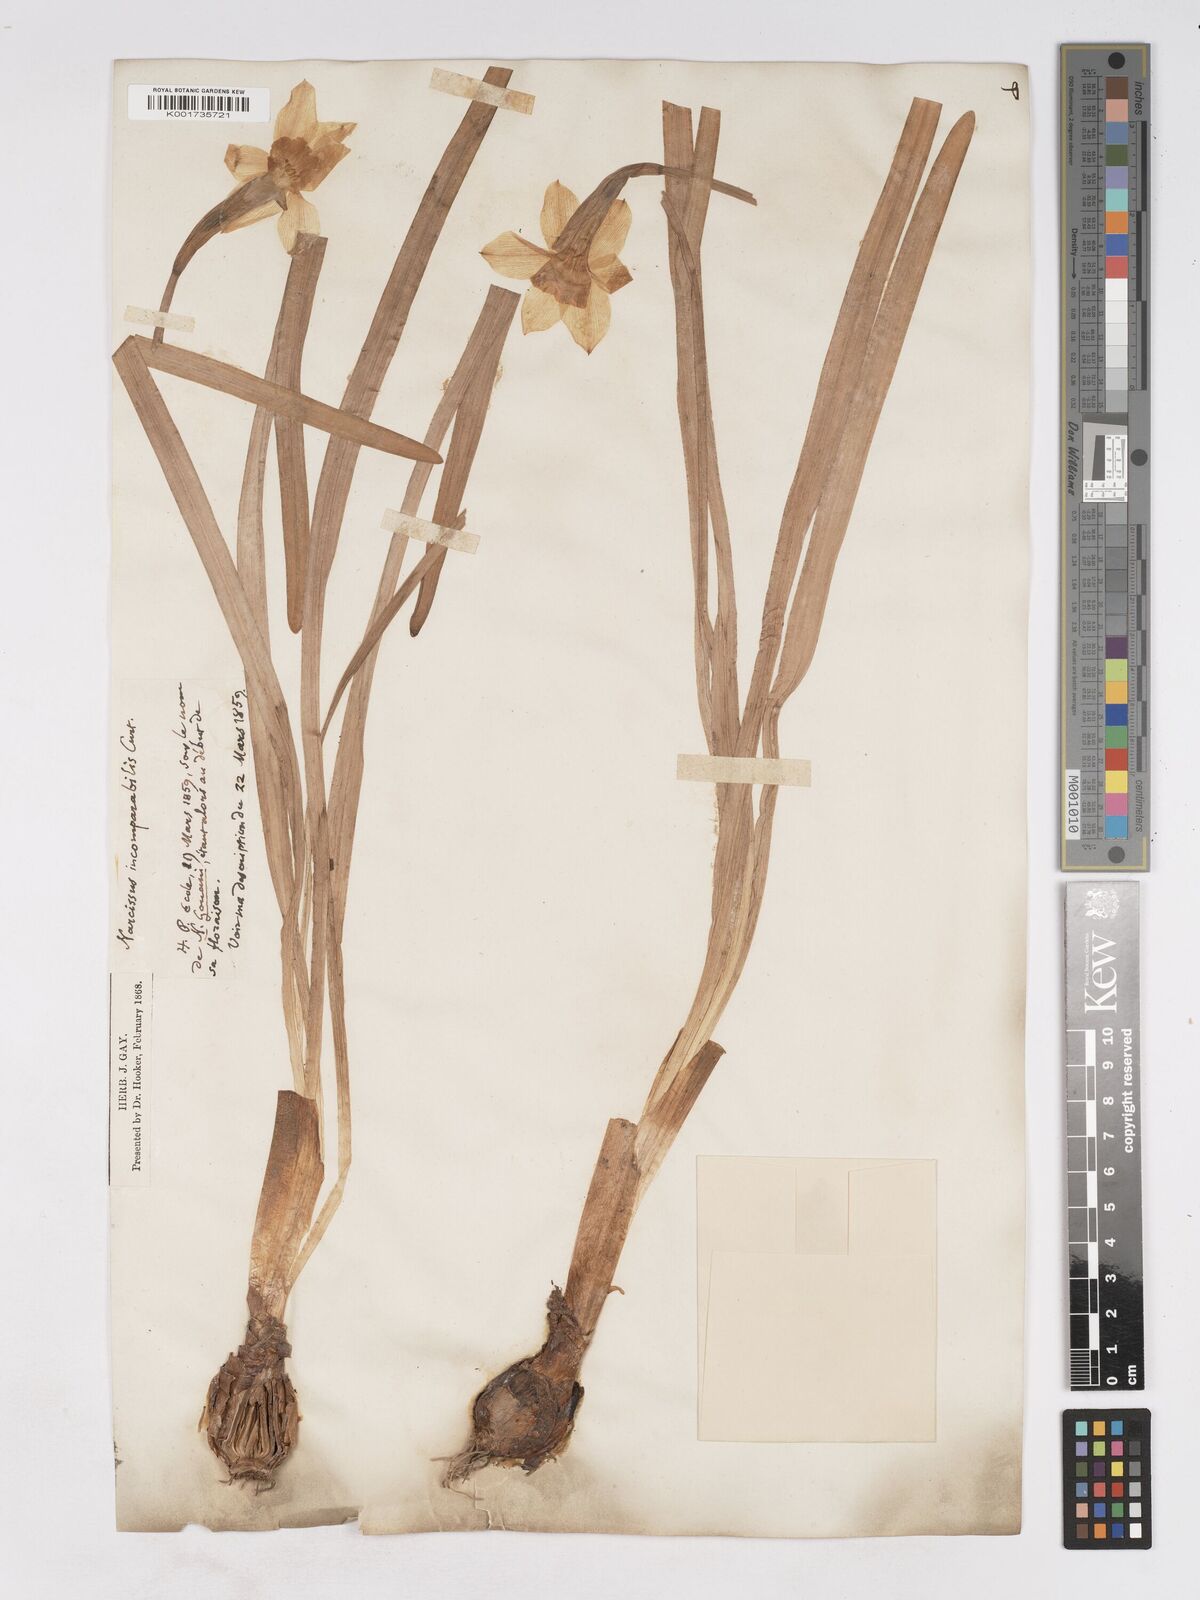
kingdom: Plantae
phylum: Tracheophyta
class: Liliopsida
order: Asparagales
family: Amaryllidaceae
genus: Narcissus
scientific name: Narcissus incomparabilis
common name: Nonesuch daffodil
